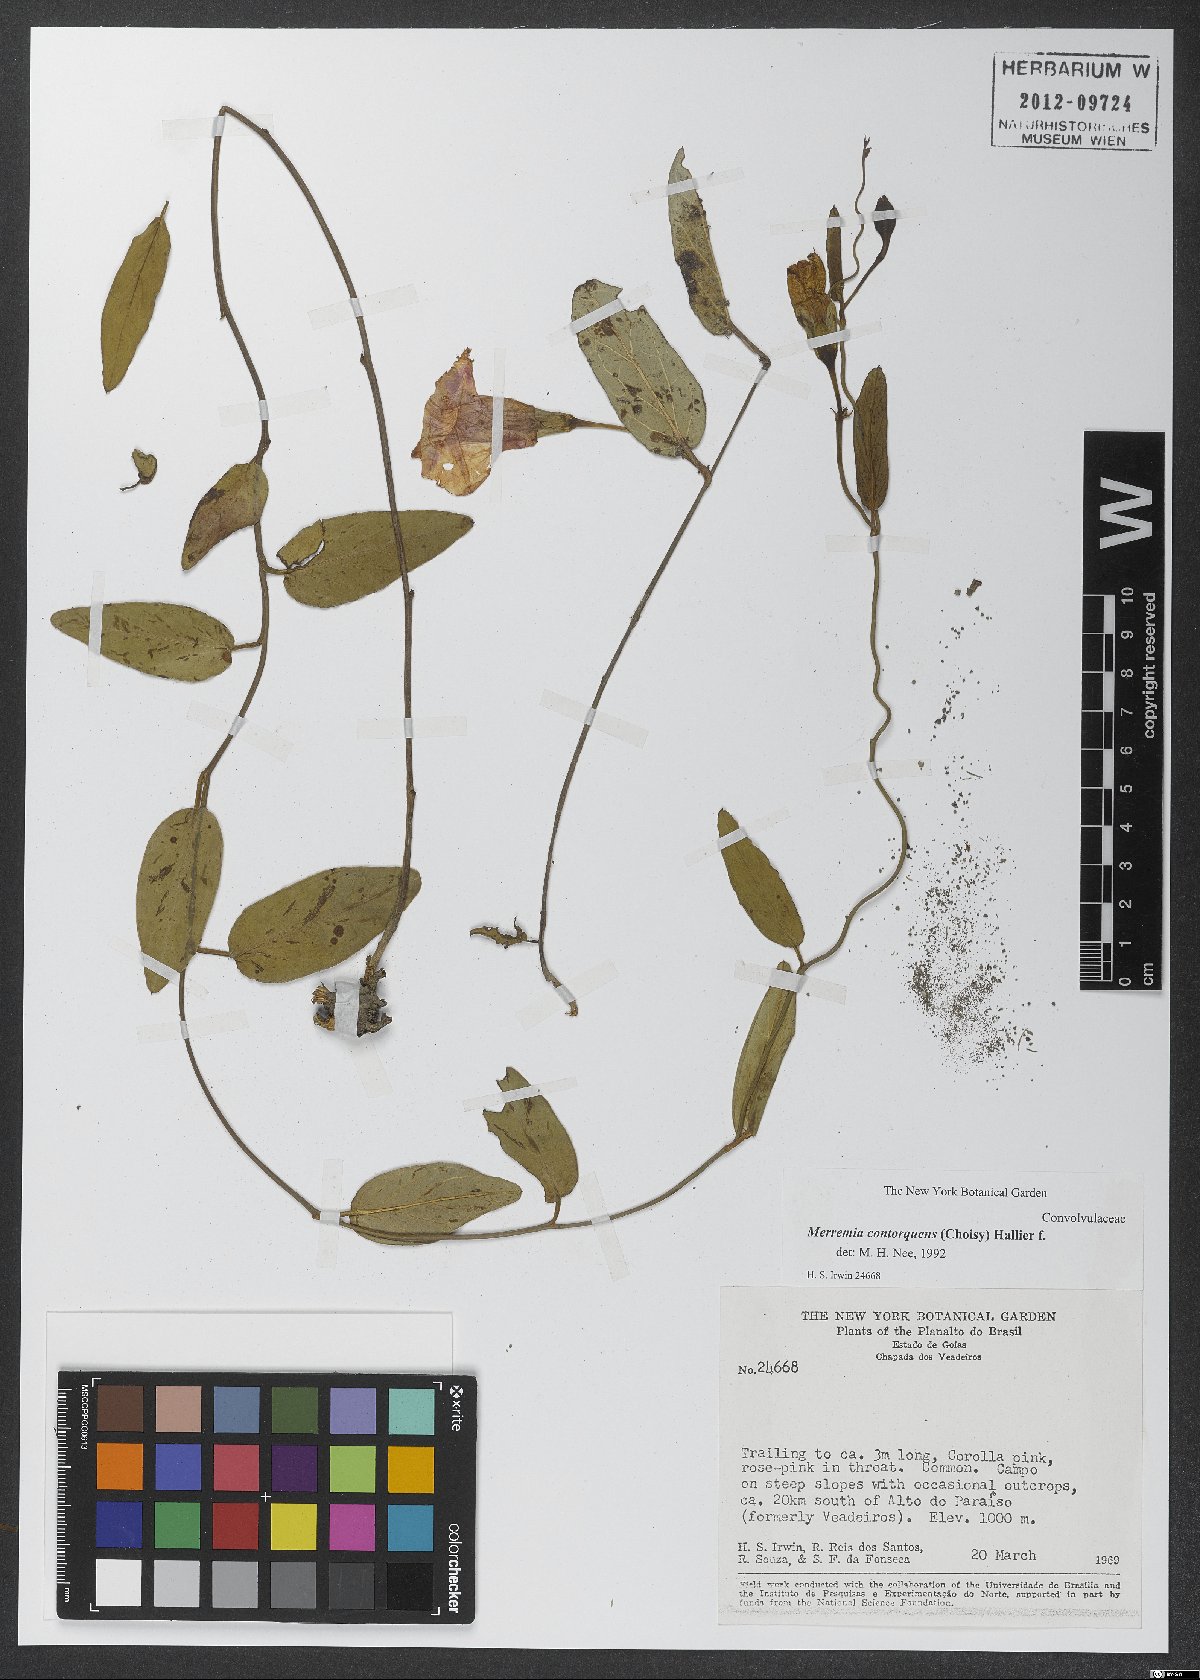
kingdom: Plantae
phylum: Tracheophyta
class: Magnoliopsida
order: Solanales
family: Convolvulaceae
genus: Distimake
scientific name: Distimake contorquens
